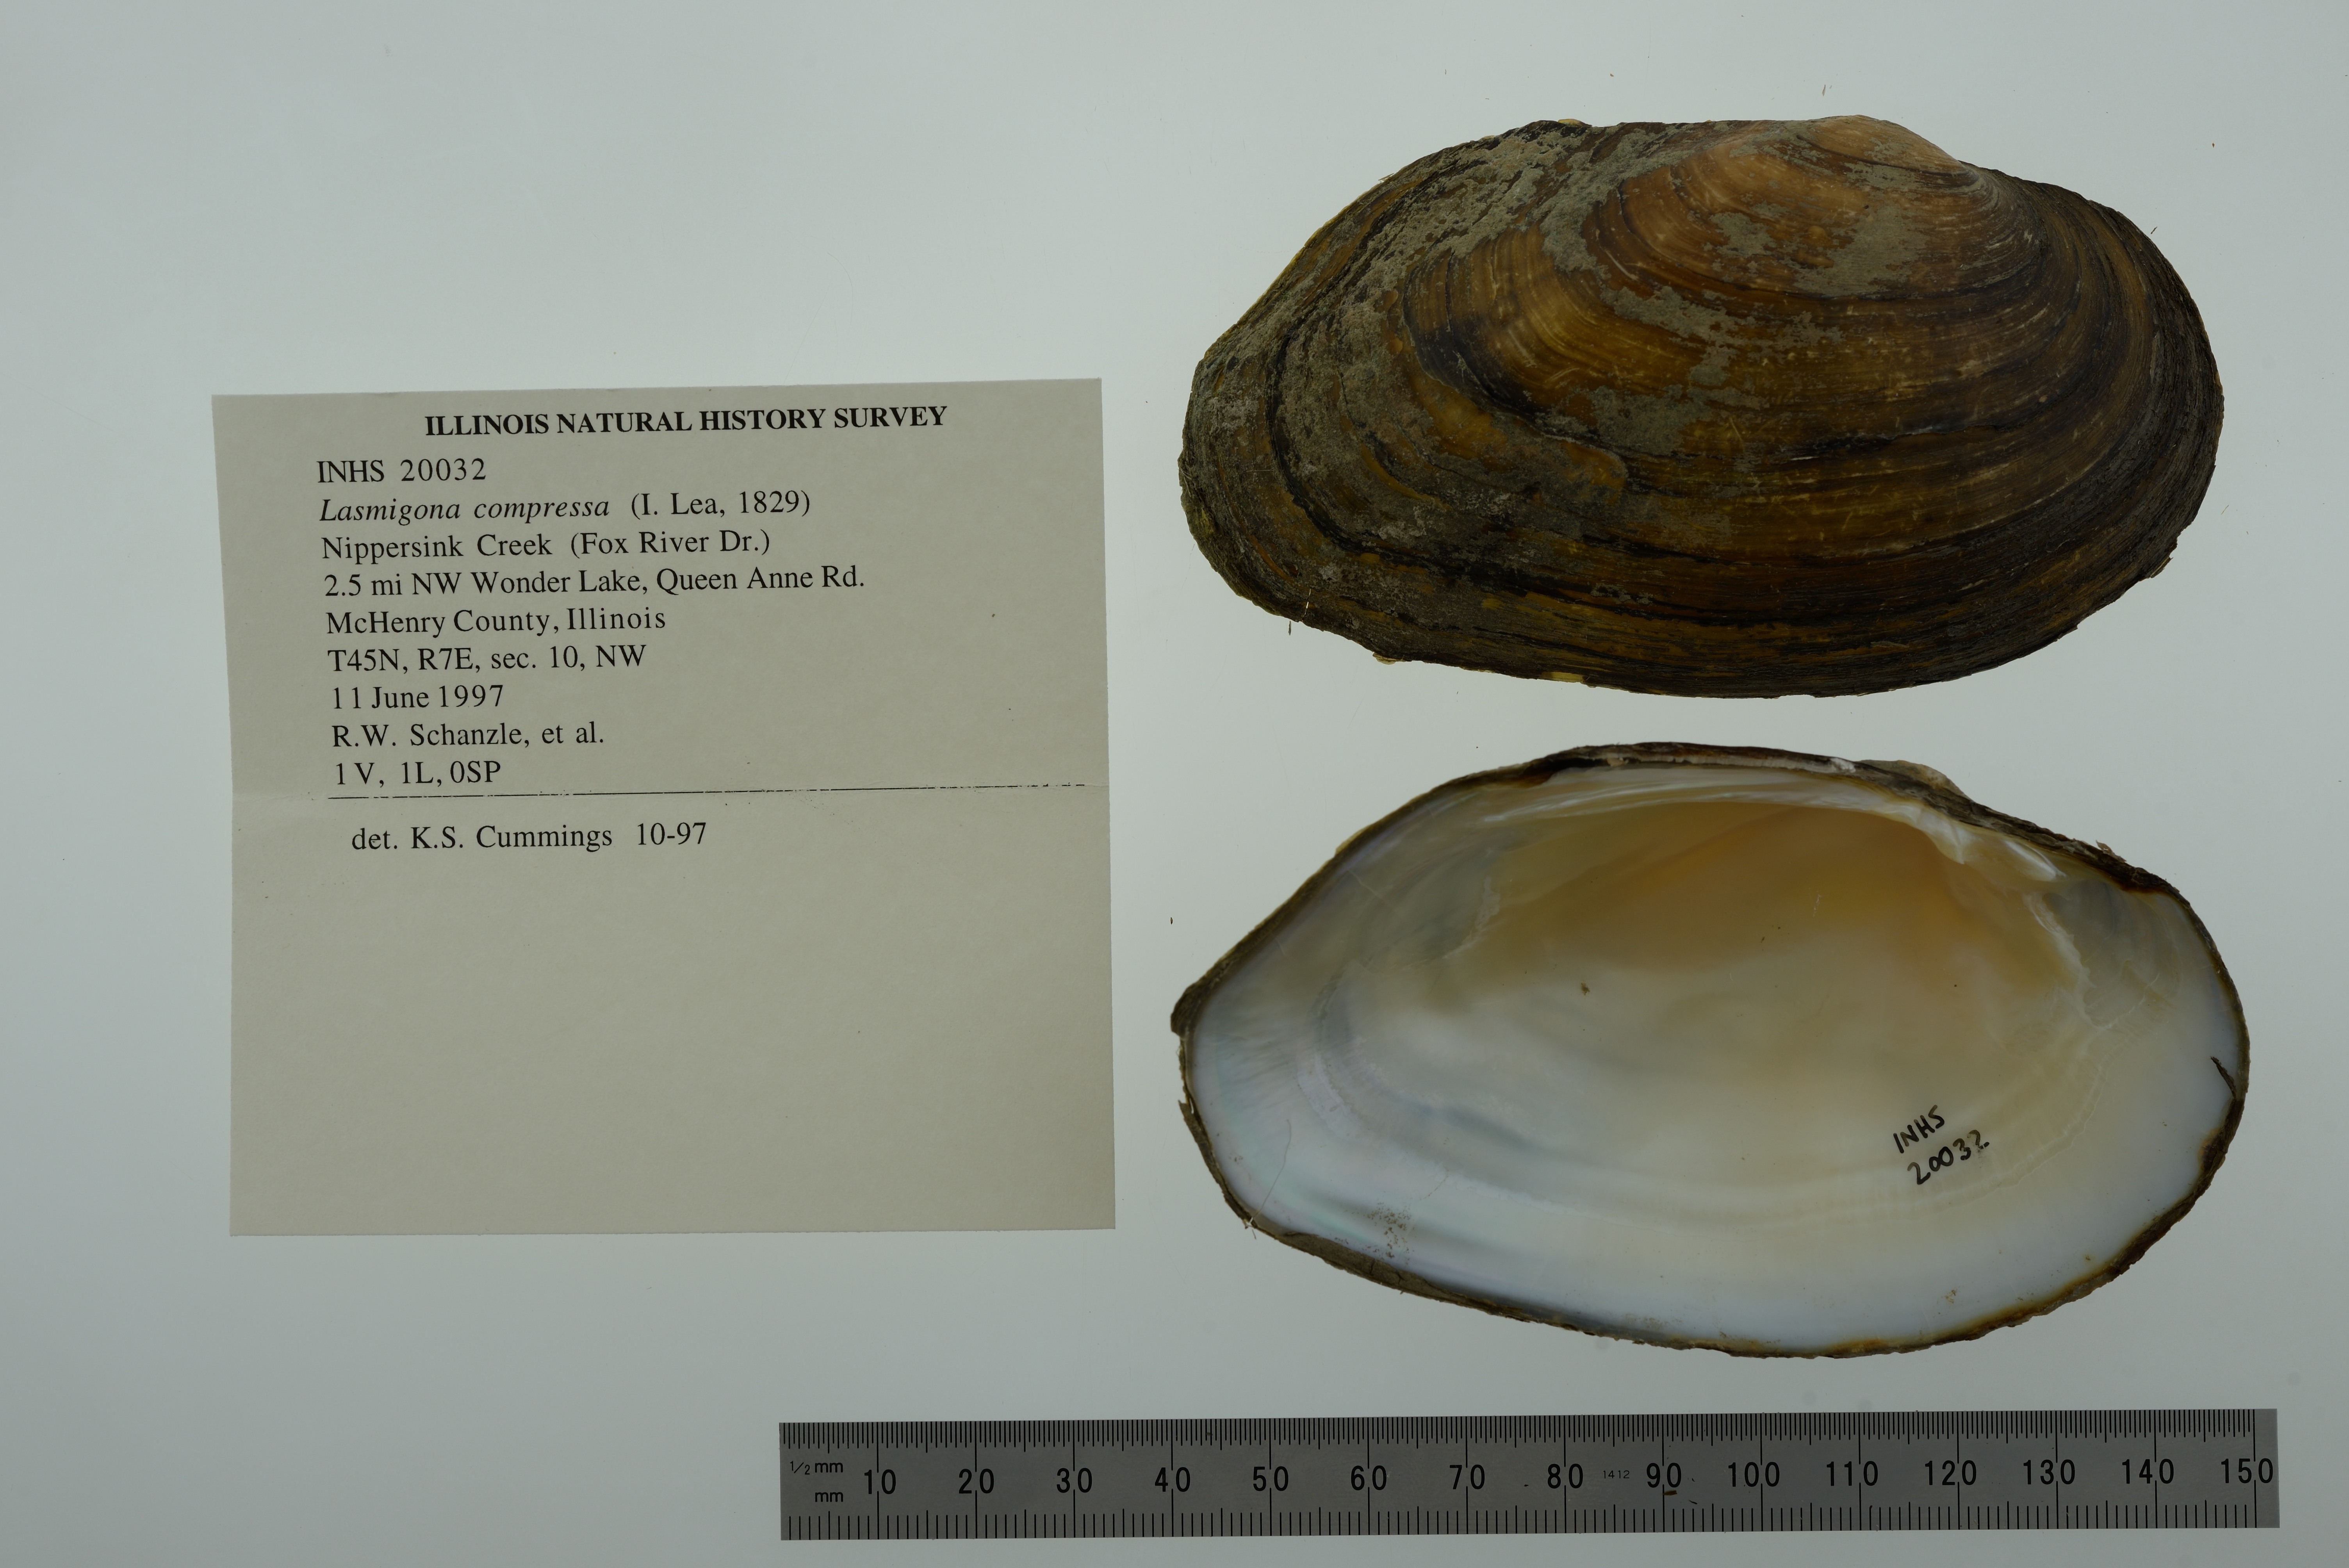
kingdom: Animalia
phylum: Mollusca
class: Bivalvia
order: Unionida
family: Unionidae
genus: Lasmigona
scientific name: Lasmigona compressa
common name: Creek heelsplitter
